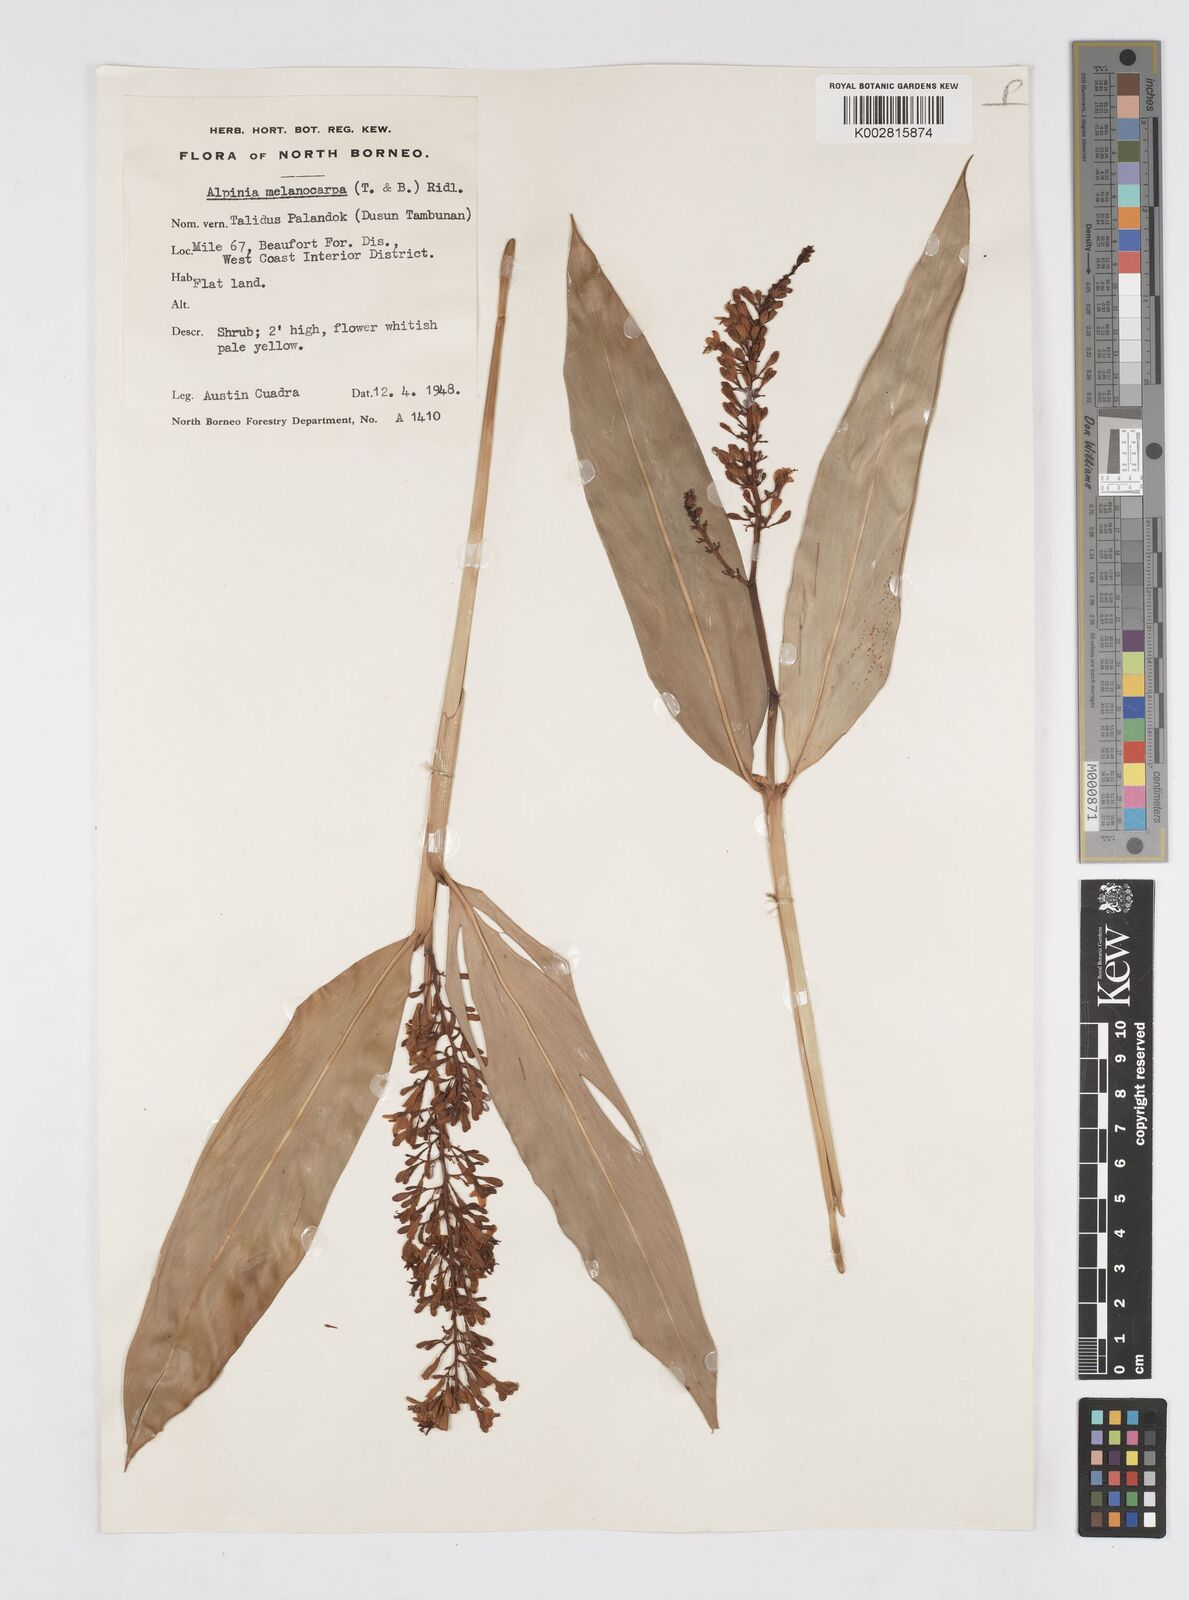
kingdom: Plantae
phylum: Tracheophyta
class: Liliopsida
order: Zingiberales
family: Zingiberaceae
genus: Alpinia
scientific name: Alpinia aquatica
